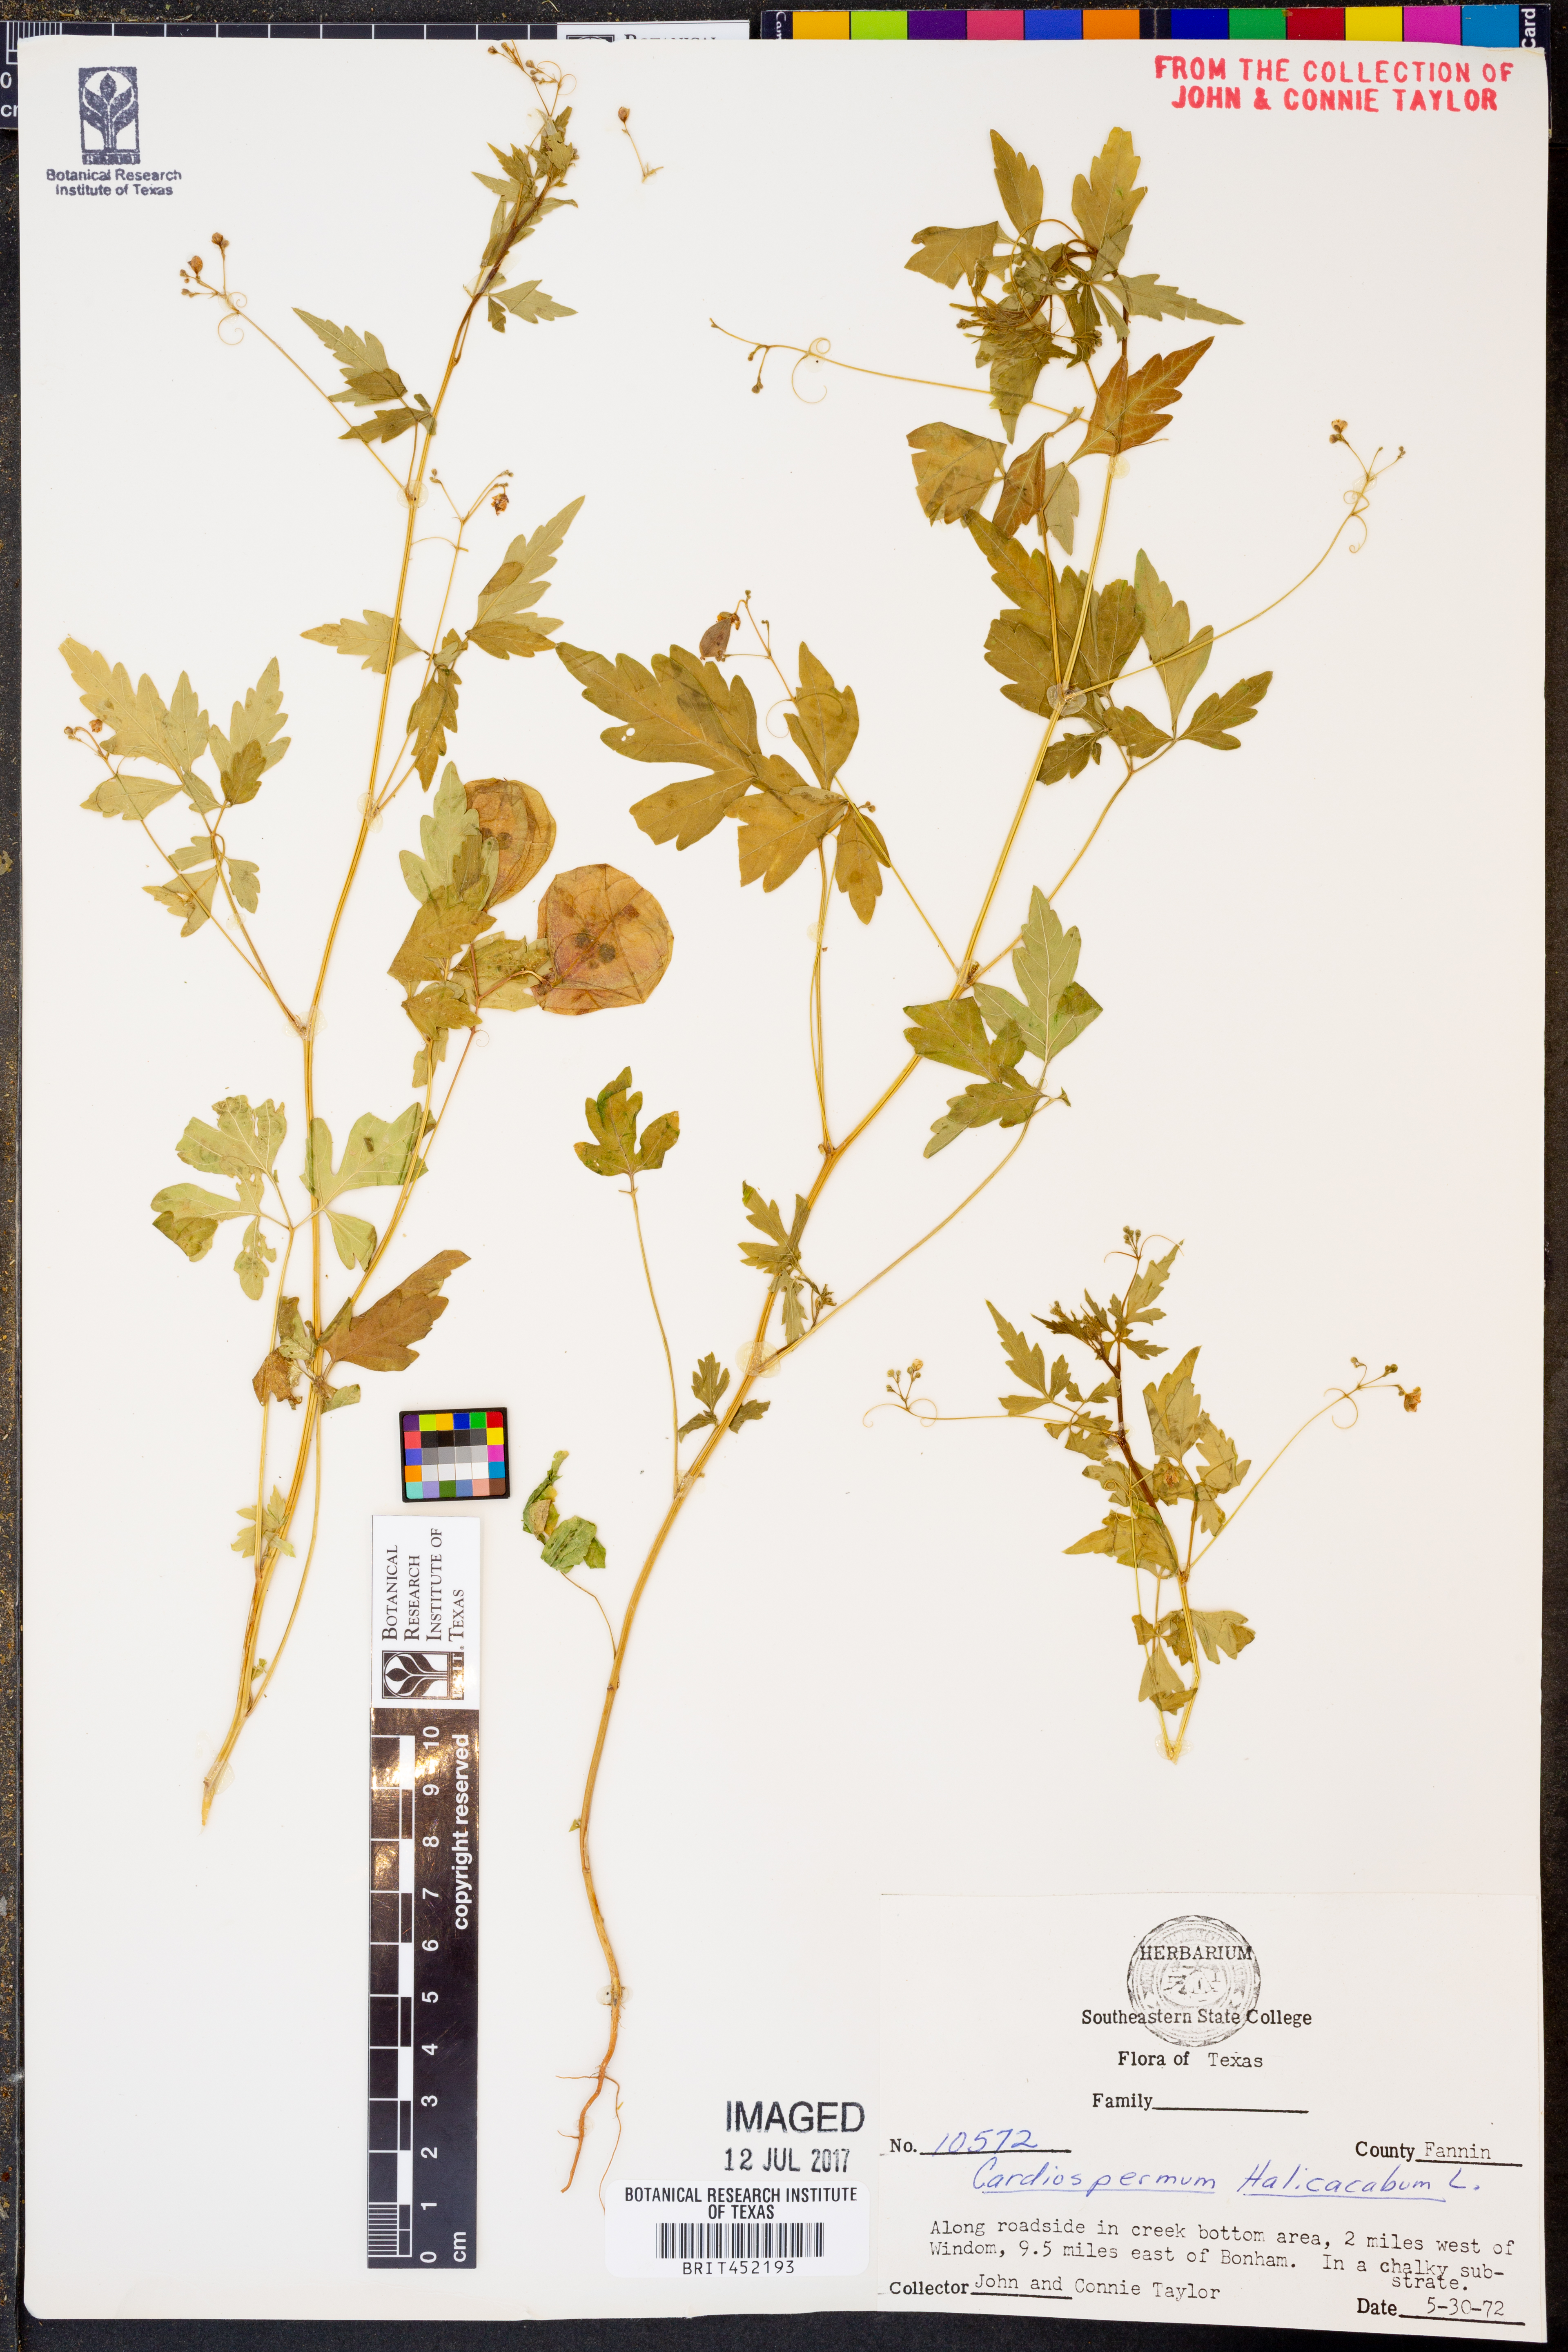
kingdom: Plantae
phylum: Tracheophyta
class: Magnoliopsida
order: Sapindales
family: Sapindaceae
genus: Cardiospermum
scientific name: Cardiospermum halicacabum
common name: Balloon vine
